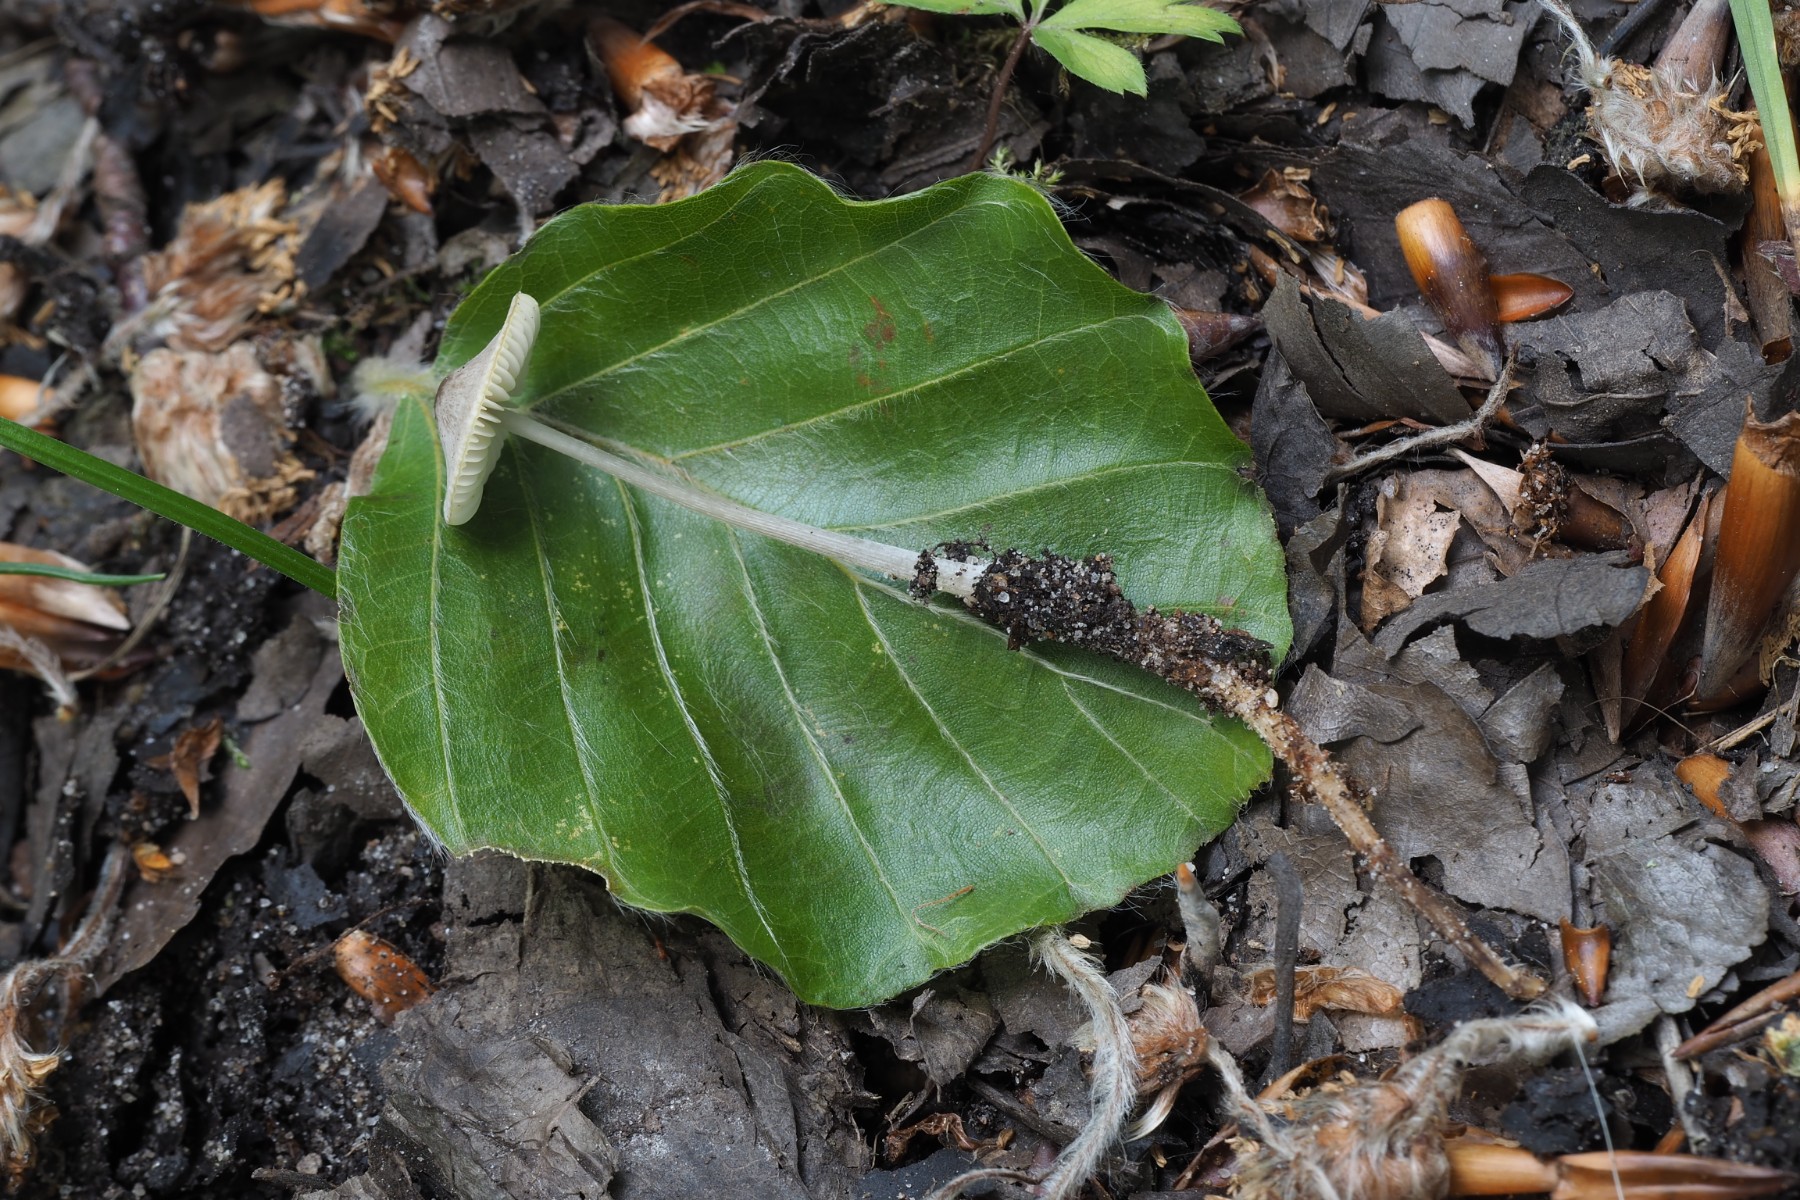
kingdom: Fungi
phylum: Basidiomycota
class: Agaricomycetes
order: Agaricales
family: Mycenaceae
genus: Mycena
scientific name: Mycena vitilis
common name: blankstokket huesvamp
